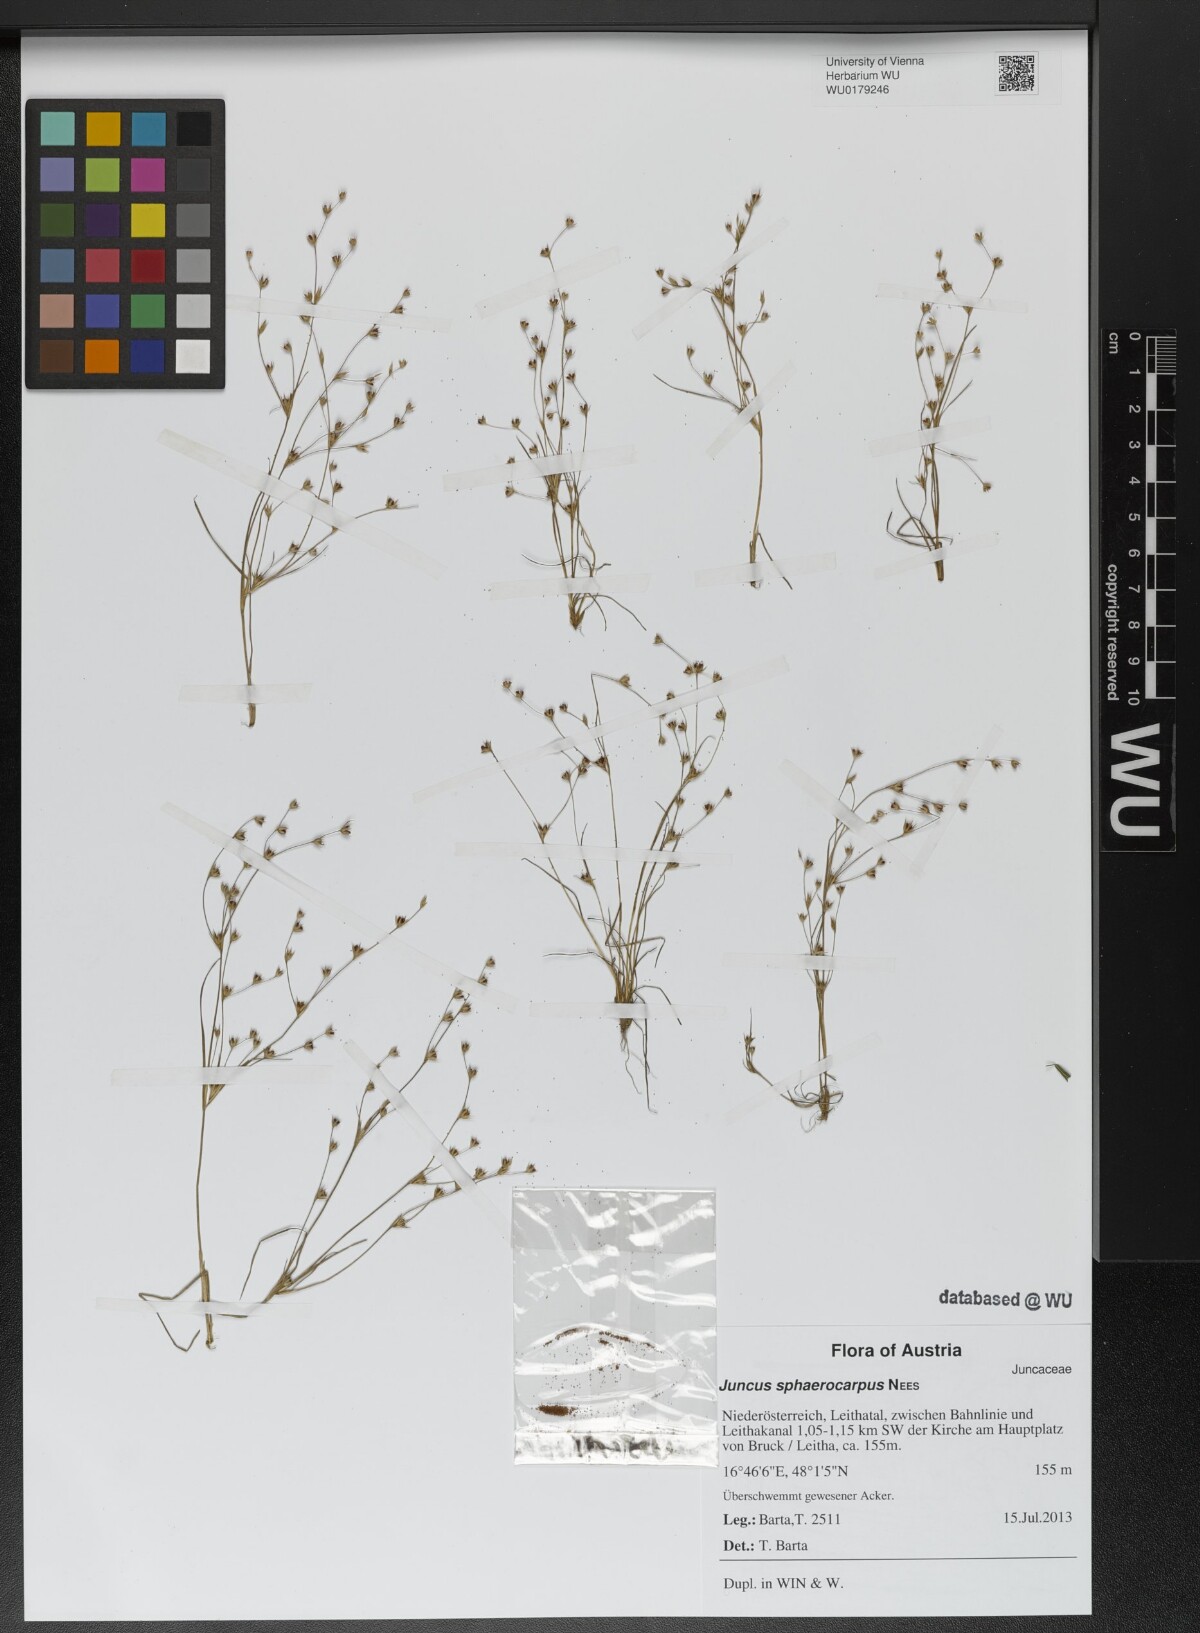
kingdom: Plantae
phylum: Tracheophyta
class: Liliopsida
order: Poales
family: Juncaceae
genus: Juncus
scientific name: Juncus sphaerocarpus
